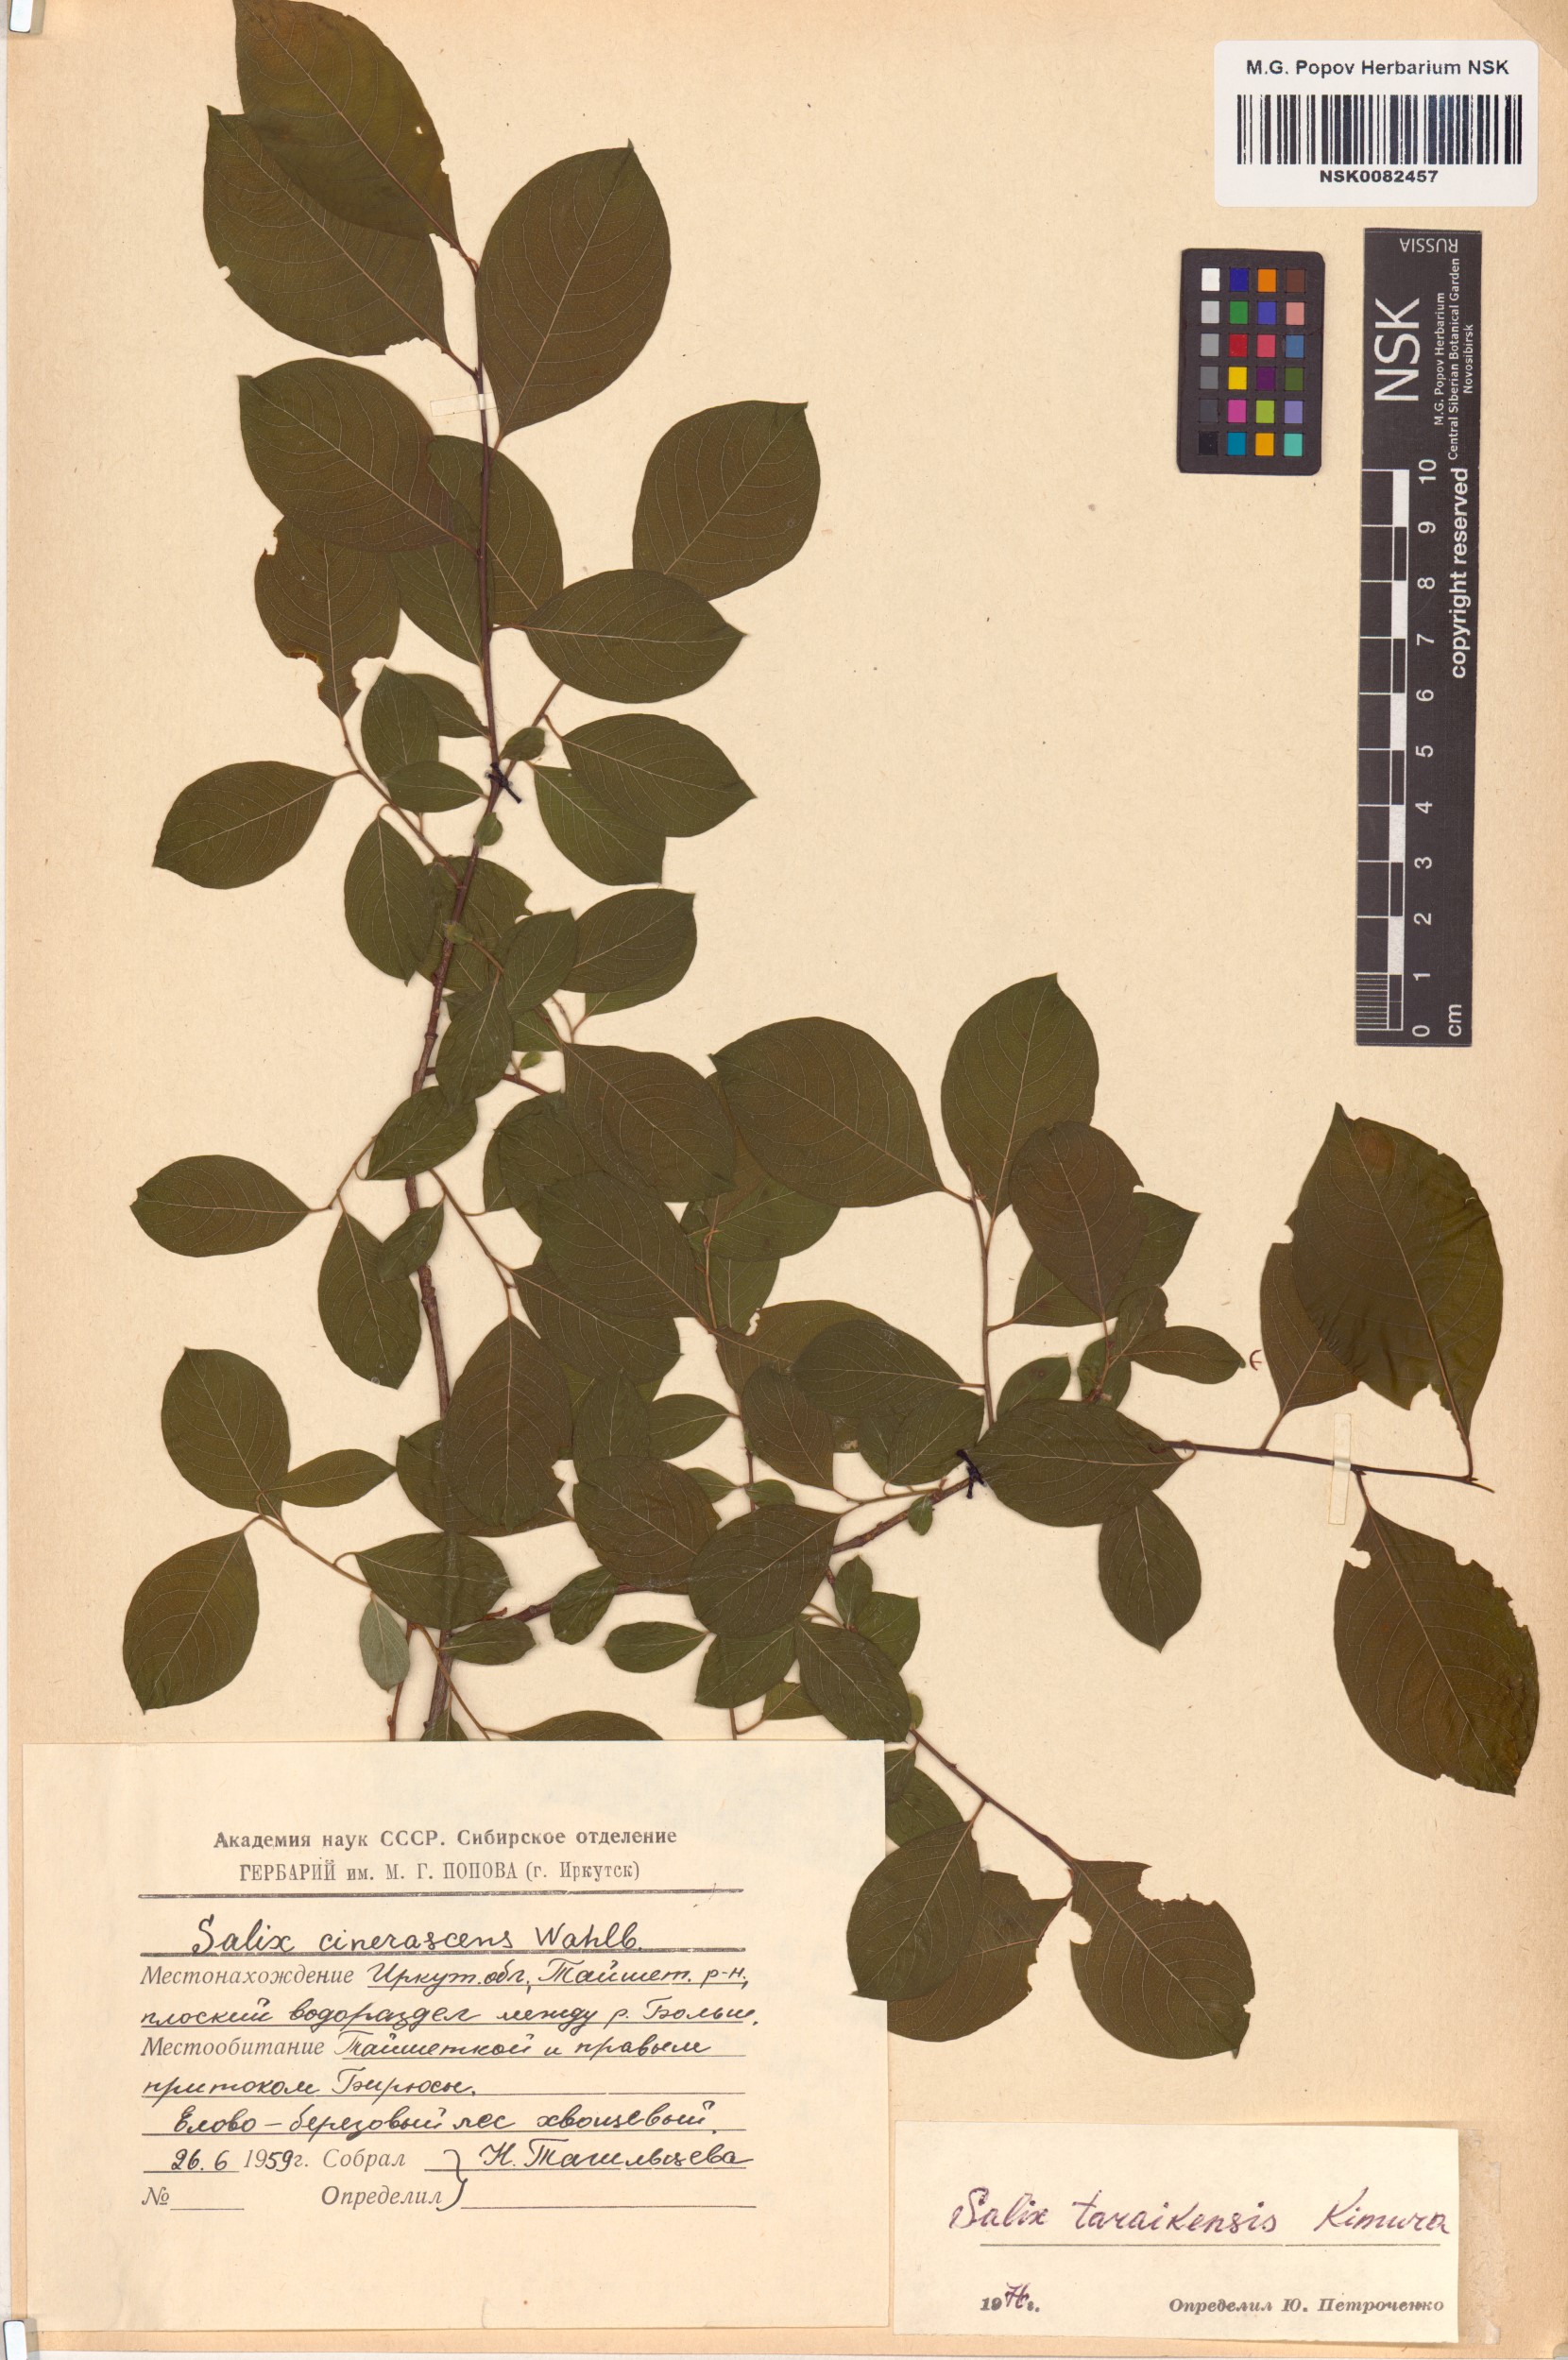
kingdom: Plantae
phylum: Tracheophyta
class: Magnoliopsida
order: Malpighiales
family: Salicaceae
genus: Salix
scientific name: Salix taraikensis
